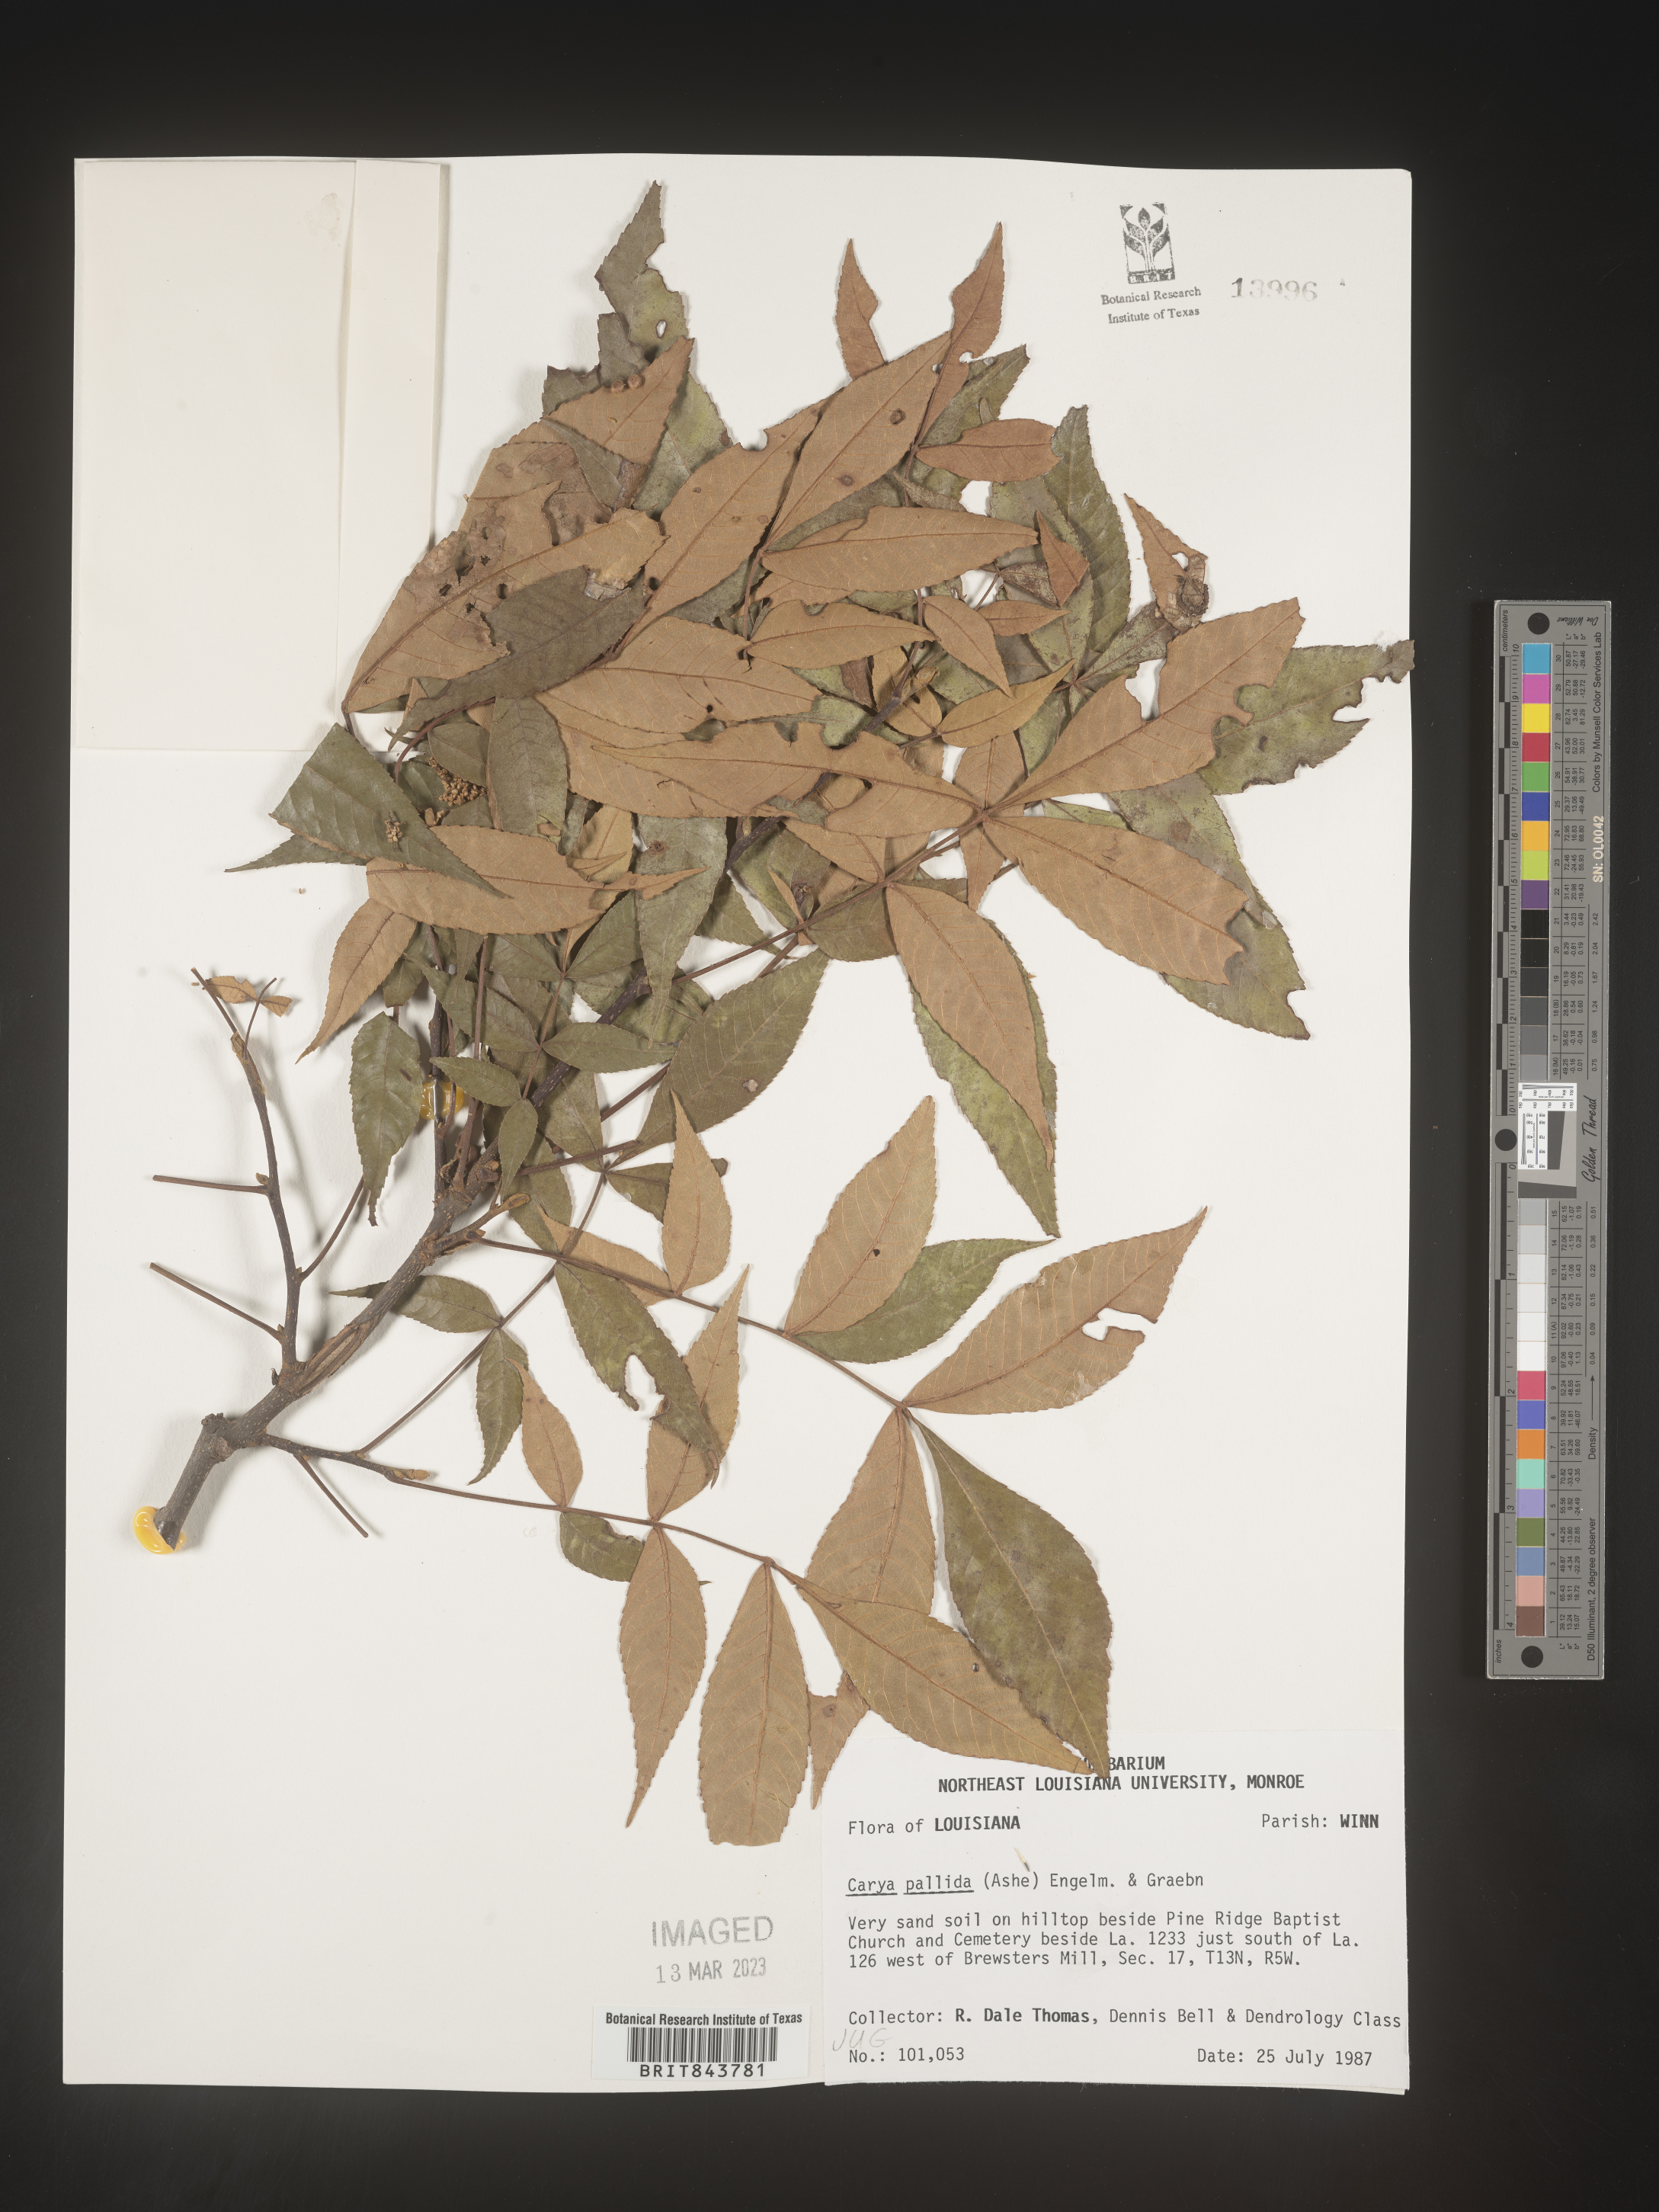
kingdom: Plantae
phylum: Tracheophyta
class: Magnoliopsida
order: Fagales
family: Juglandaceae
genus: Carya
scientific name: Carya pallida
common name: Sand hickory
